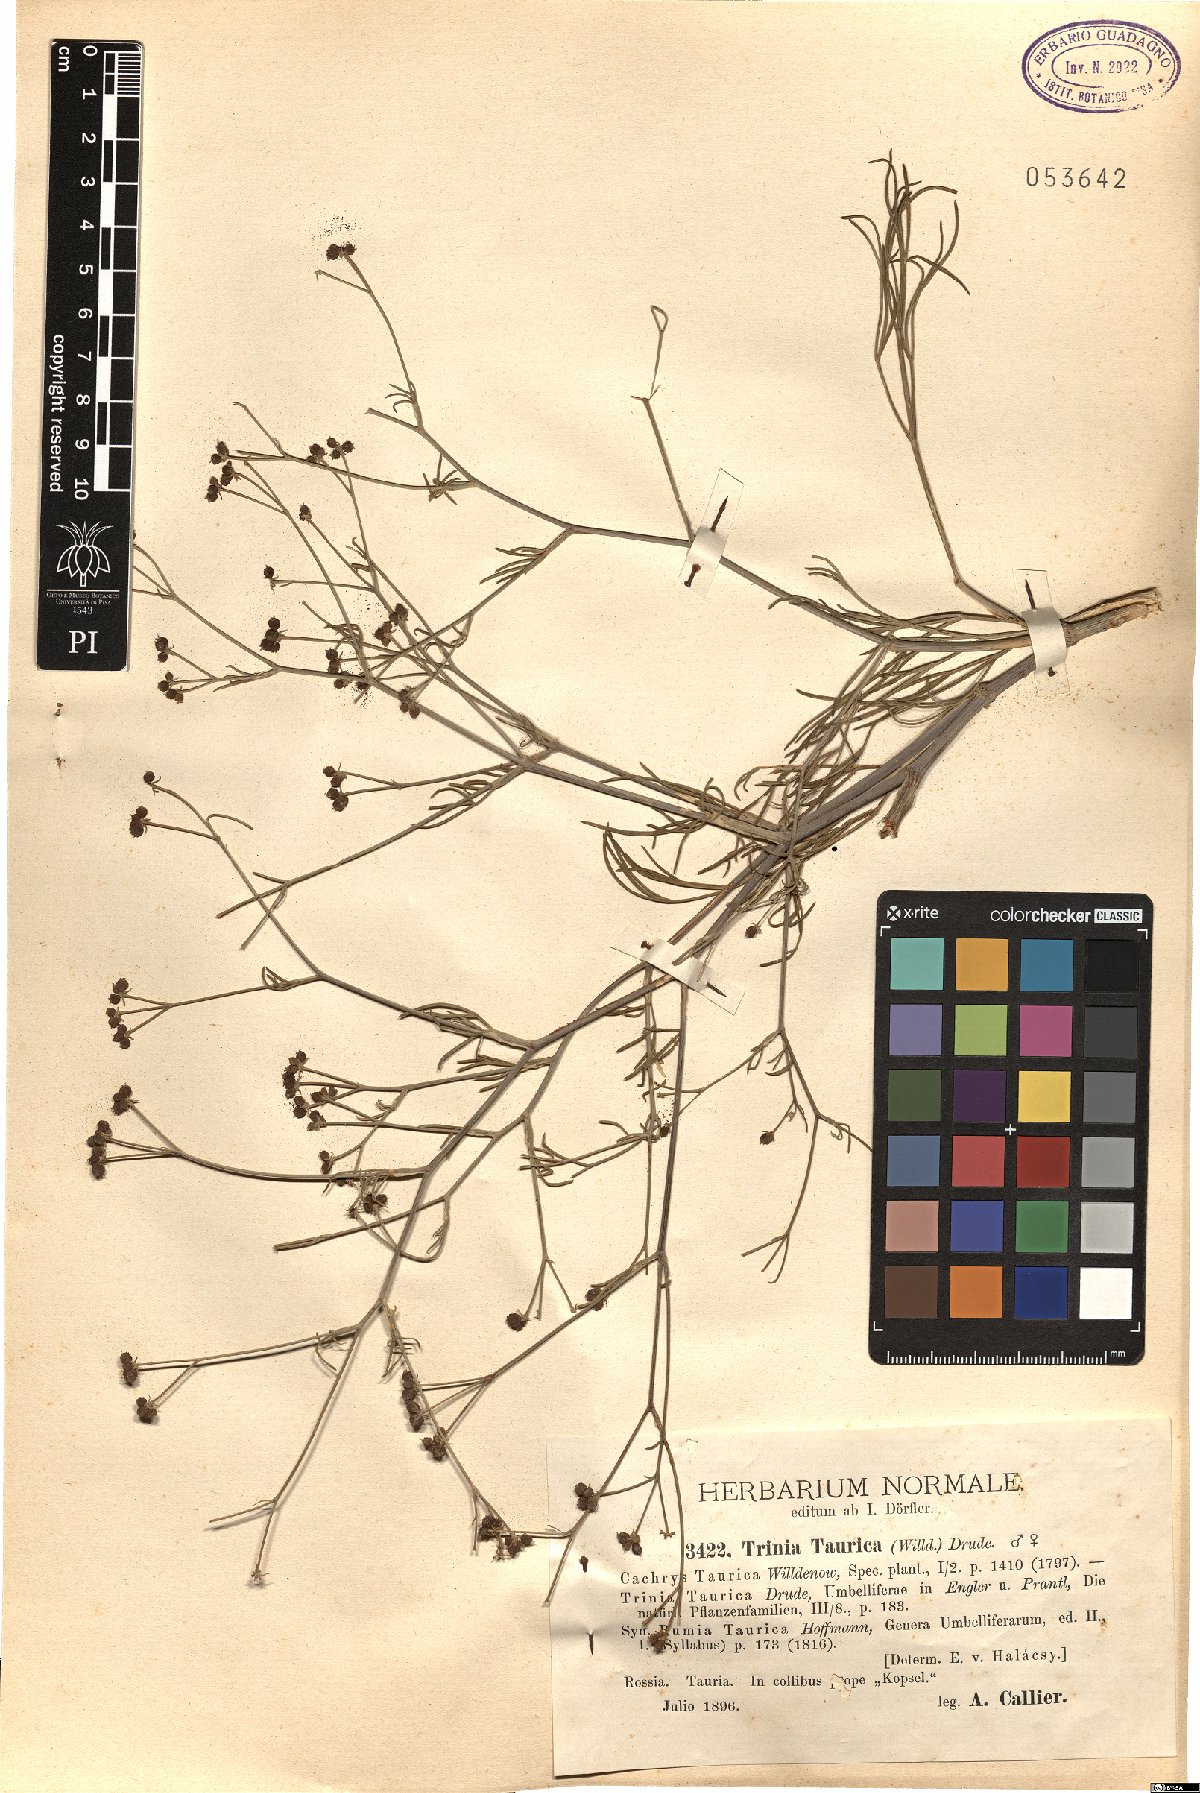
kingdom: Plantae
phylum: Tracheophyta
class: Magnoliopsida
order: Apiales
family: Apiaceae
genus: Trinia
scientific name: Trinia
